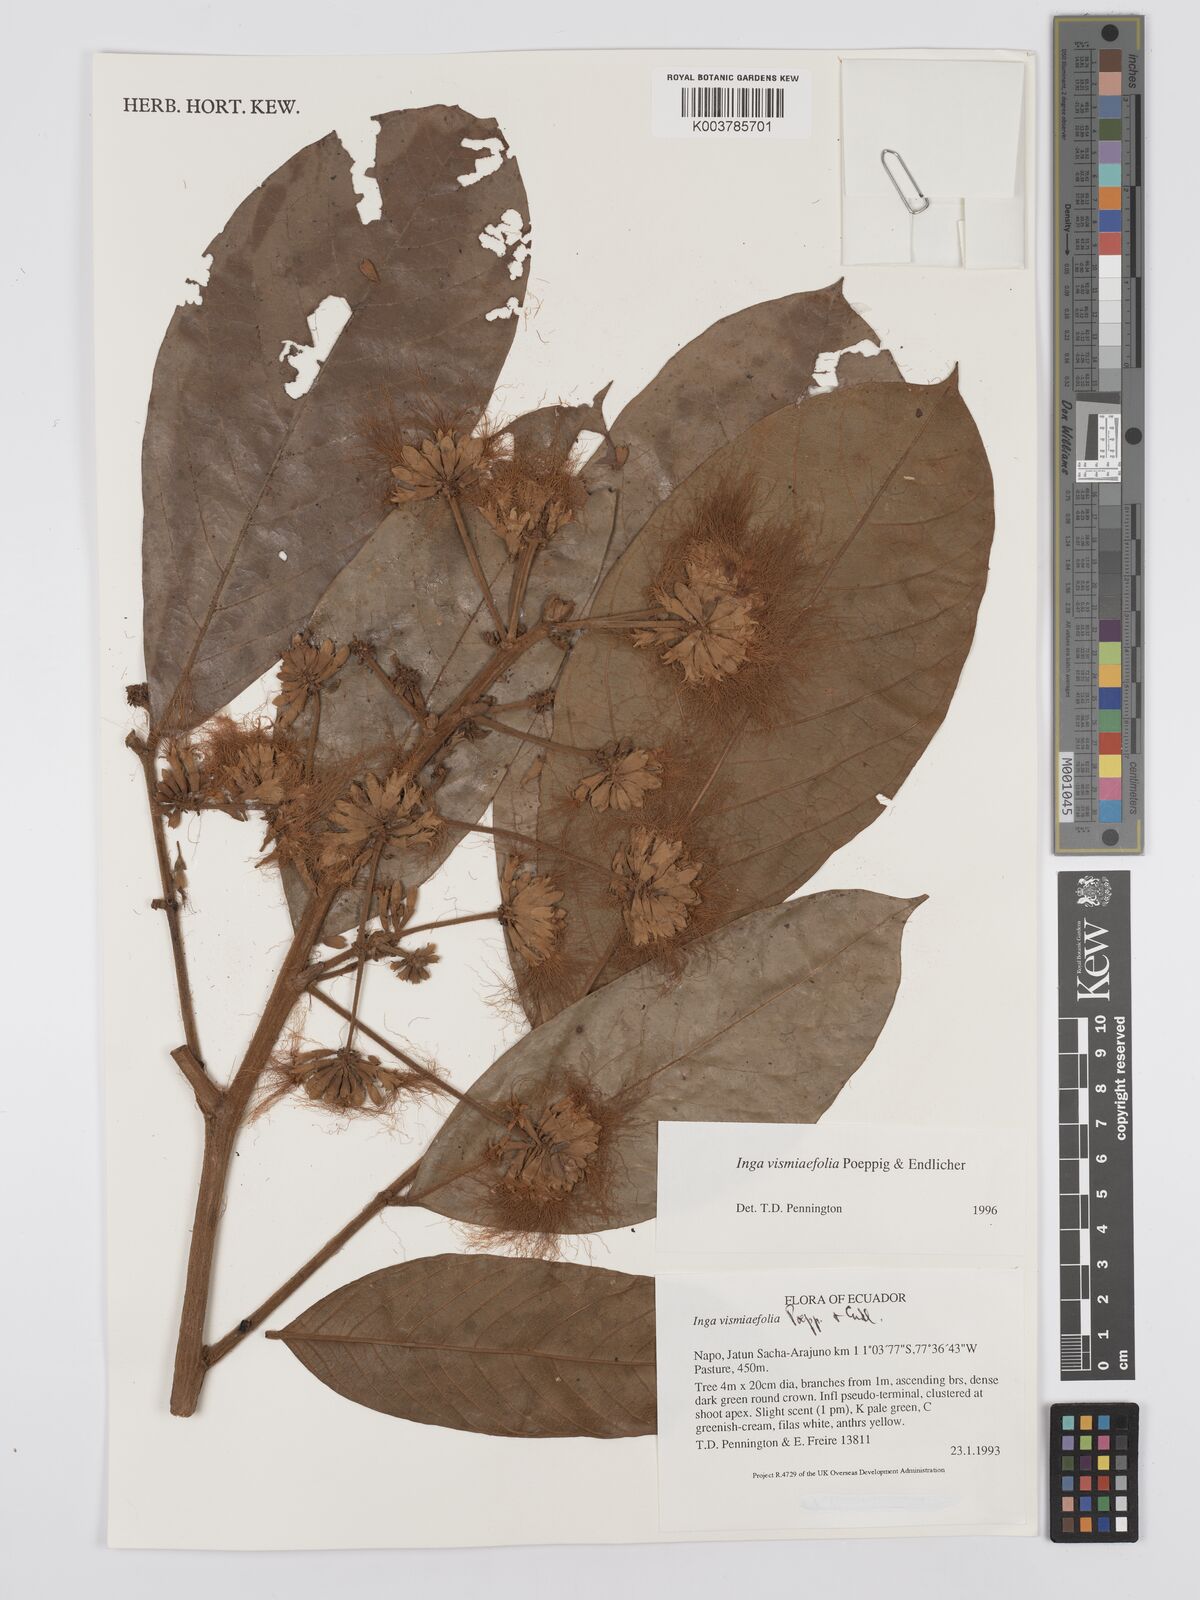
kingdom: Plantae
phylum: Tracheophyta
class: Magnoliopsida
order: Fabales
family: Fabaceae
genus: Inga
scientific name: Inga vismiifolia
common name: Howler monkey inga
